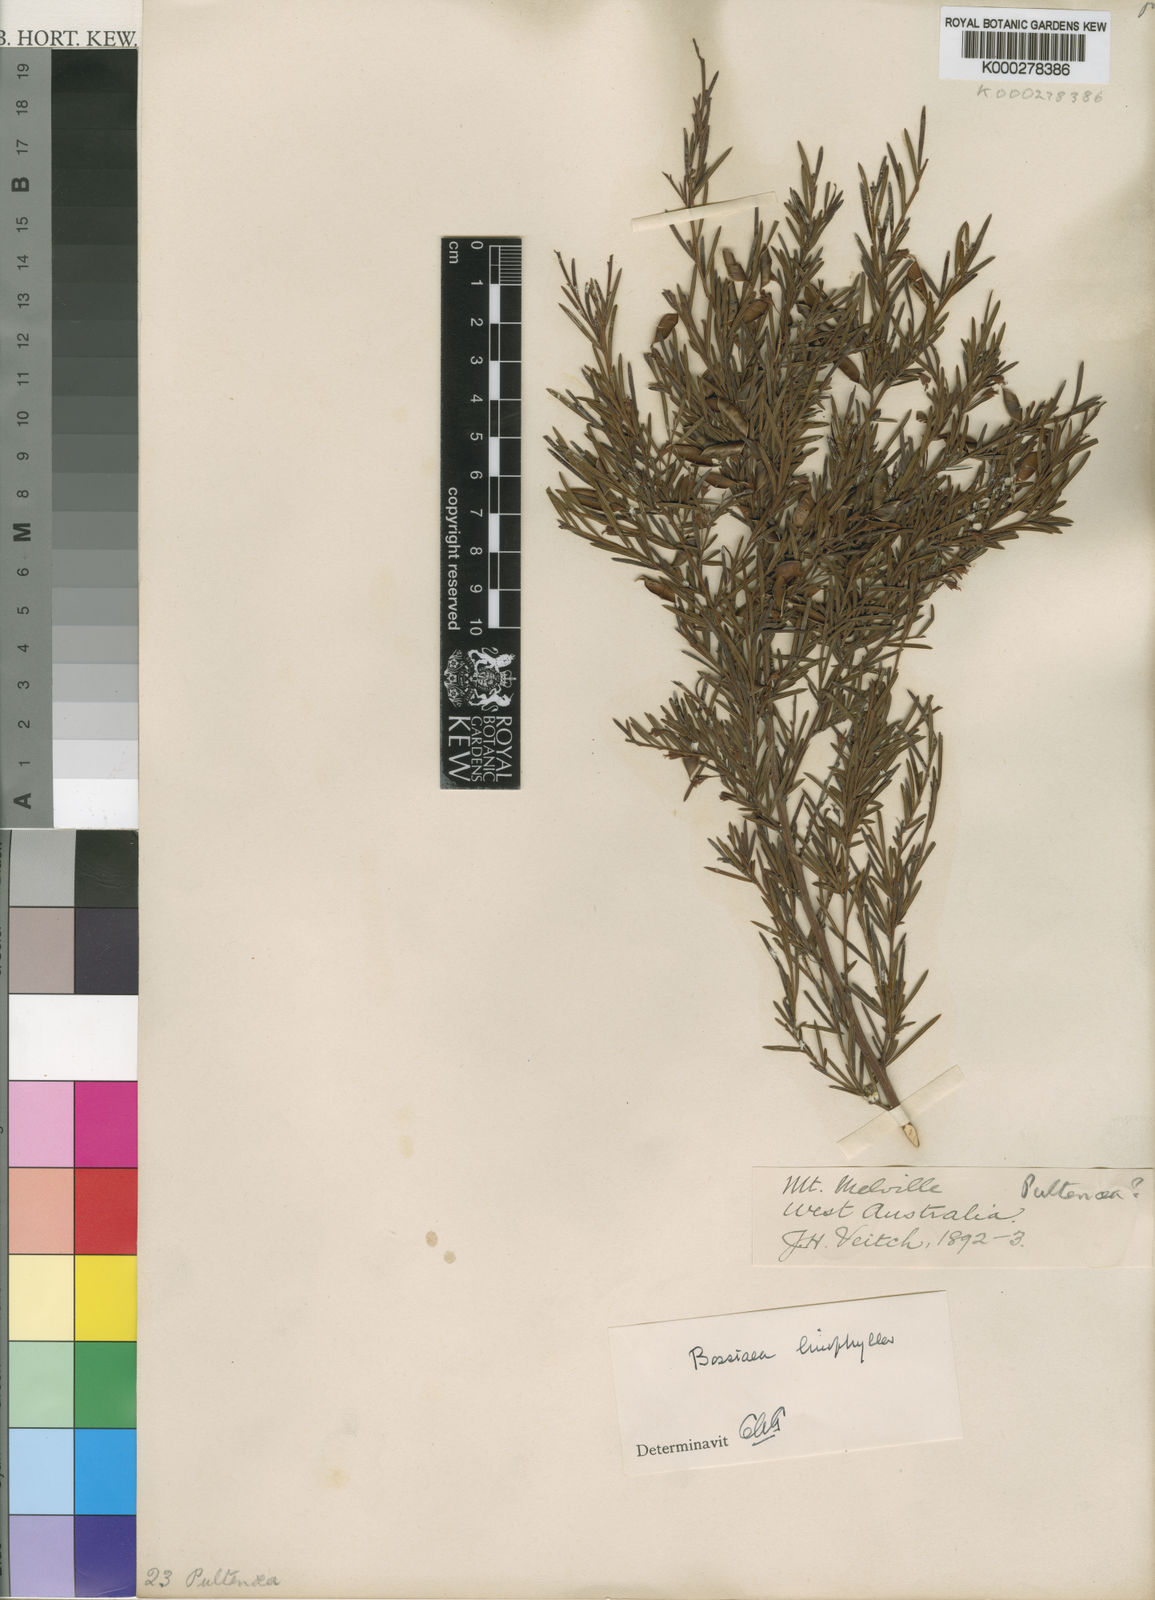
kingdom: Plantae
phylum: Tracheophyta
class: Magnoliopsida
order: Fabales
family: Fabaceae
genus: Bossiaea
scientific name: Bossiaea linophylla
